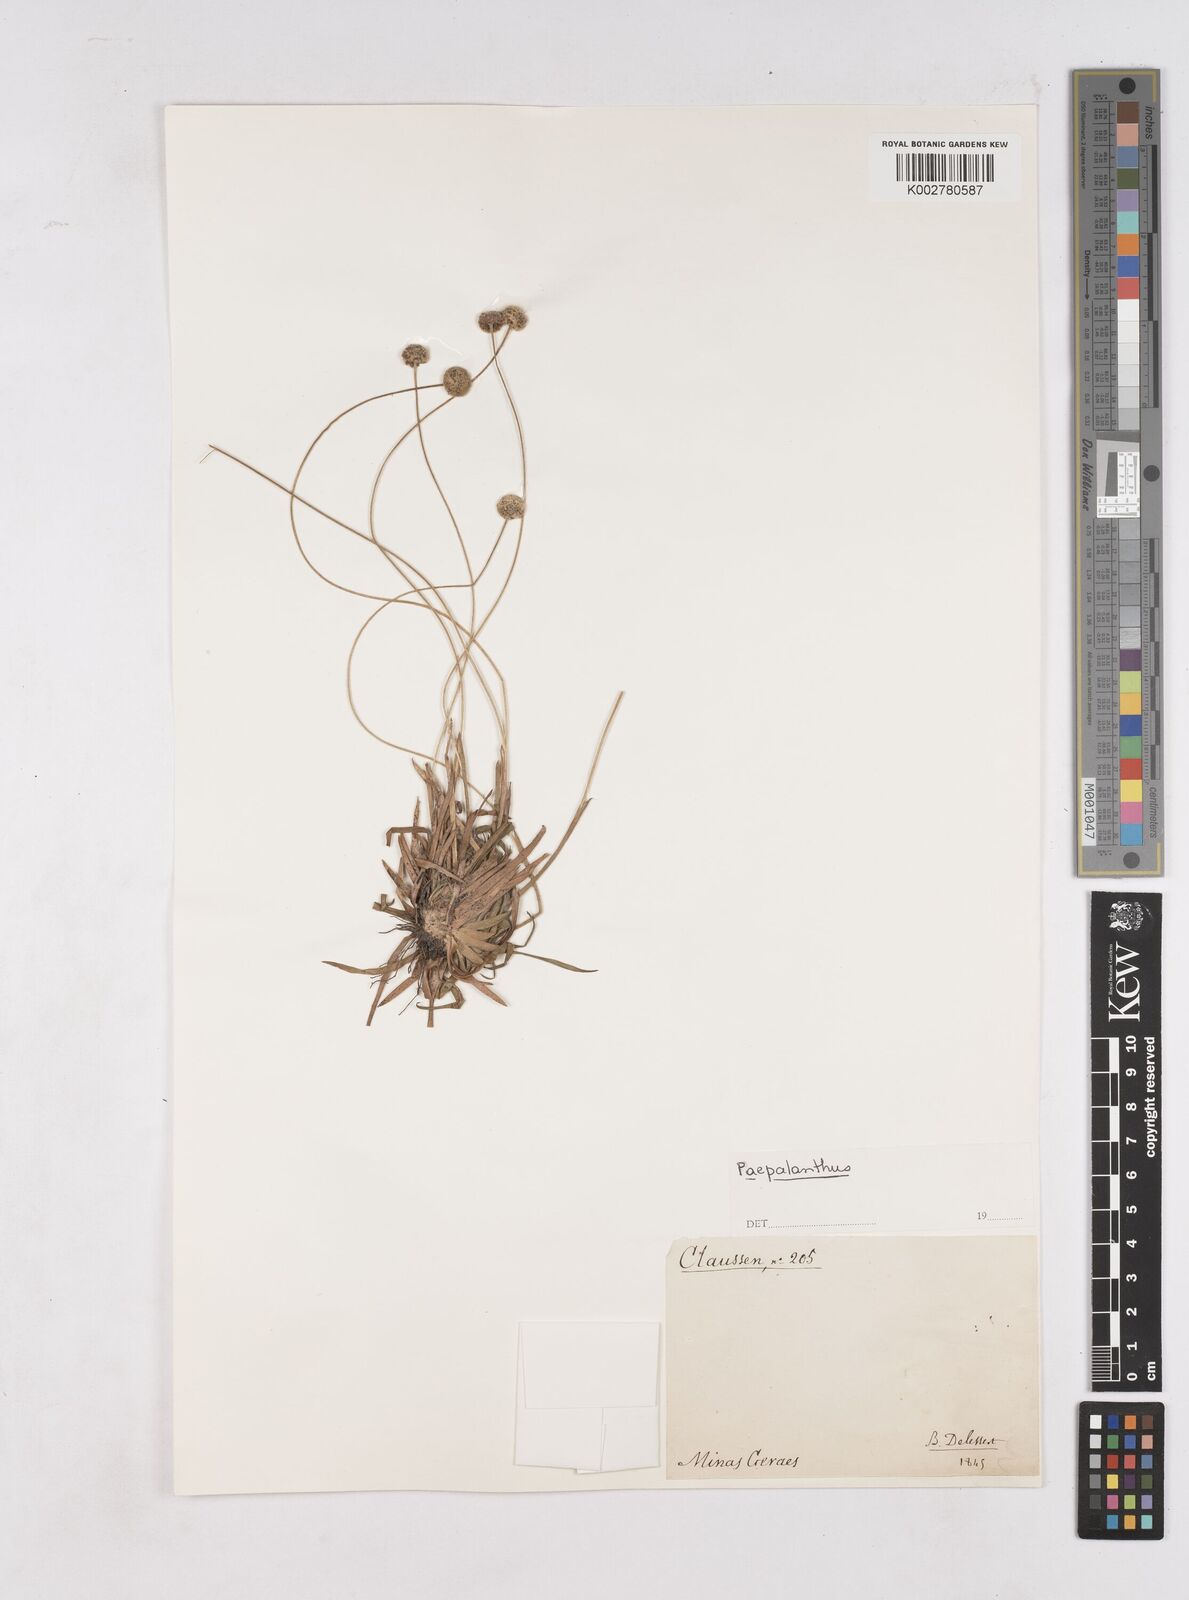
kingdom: Plantae
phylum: Tracheophyta
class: Liliopsida
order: Poales
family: Eriocaulaceae
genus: Paepalanthus
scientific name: Paepalanthus
